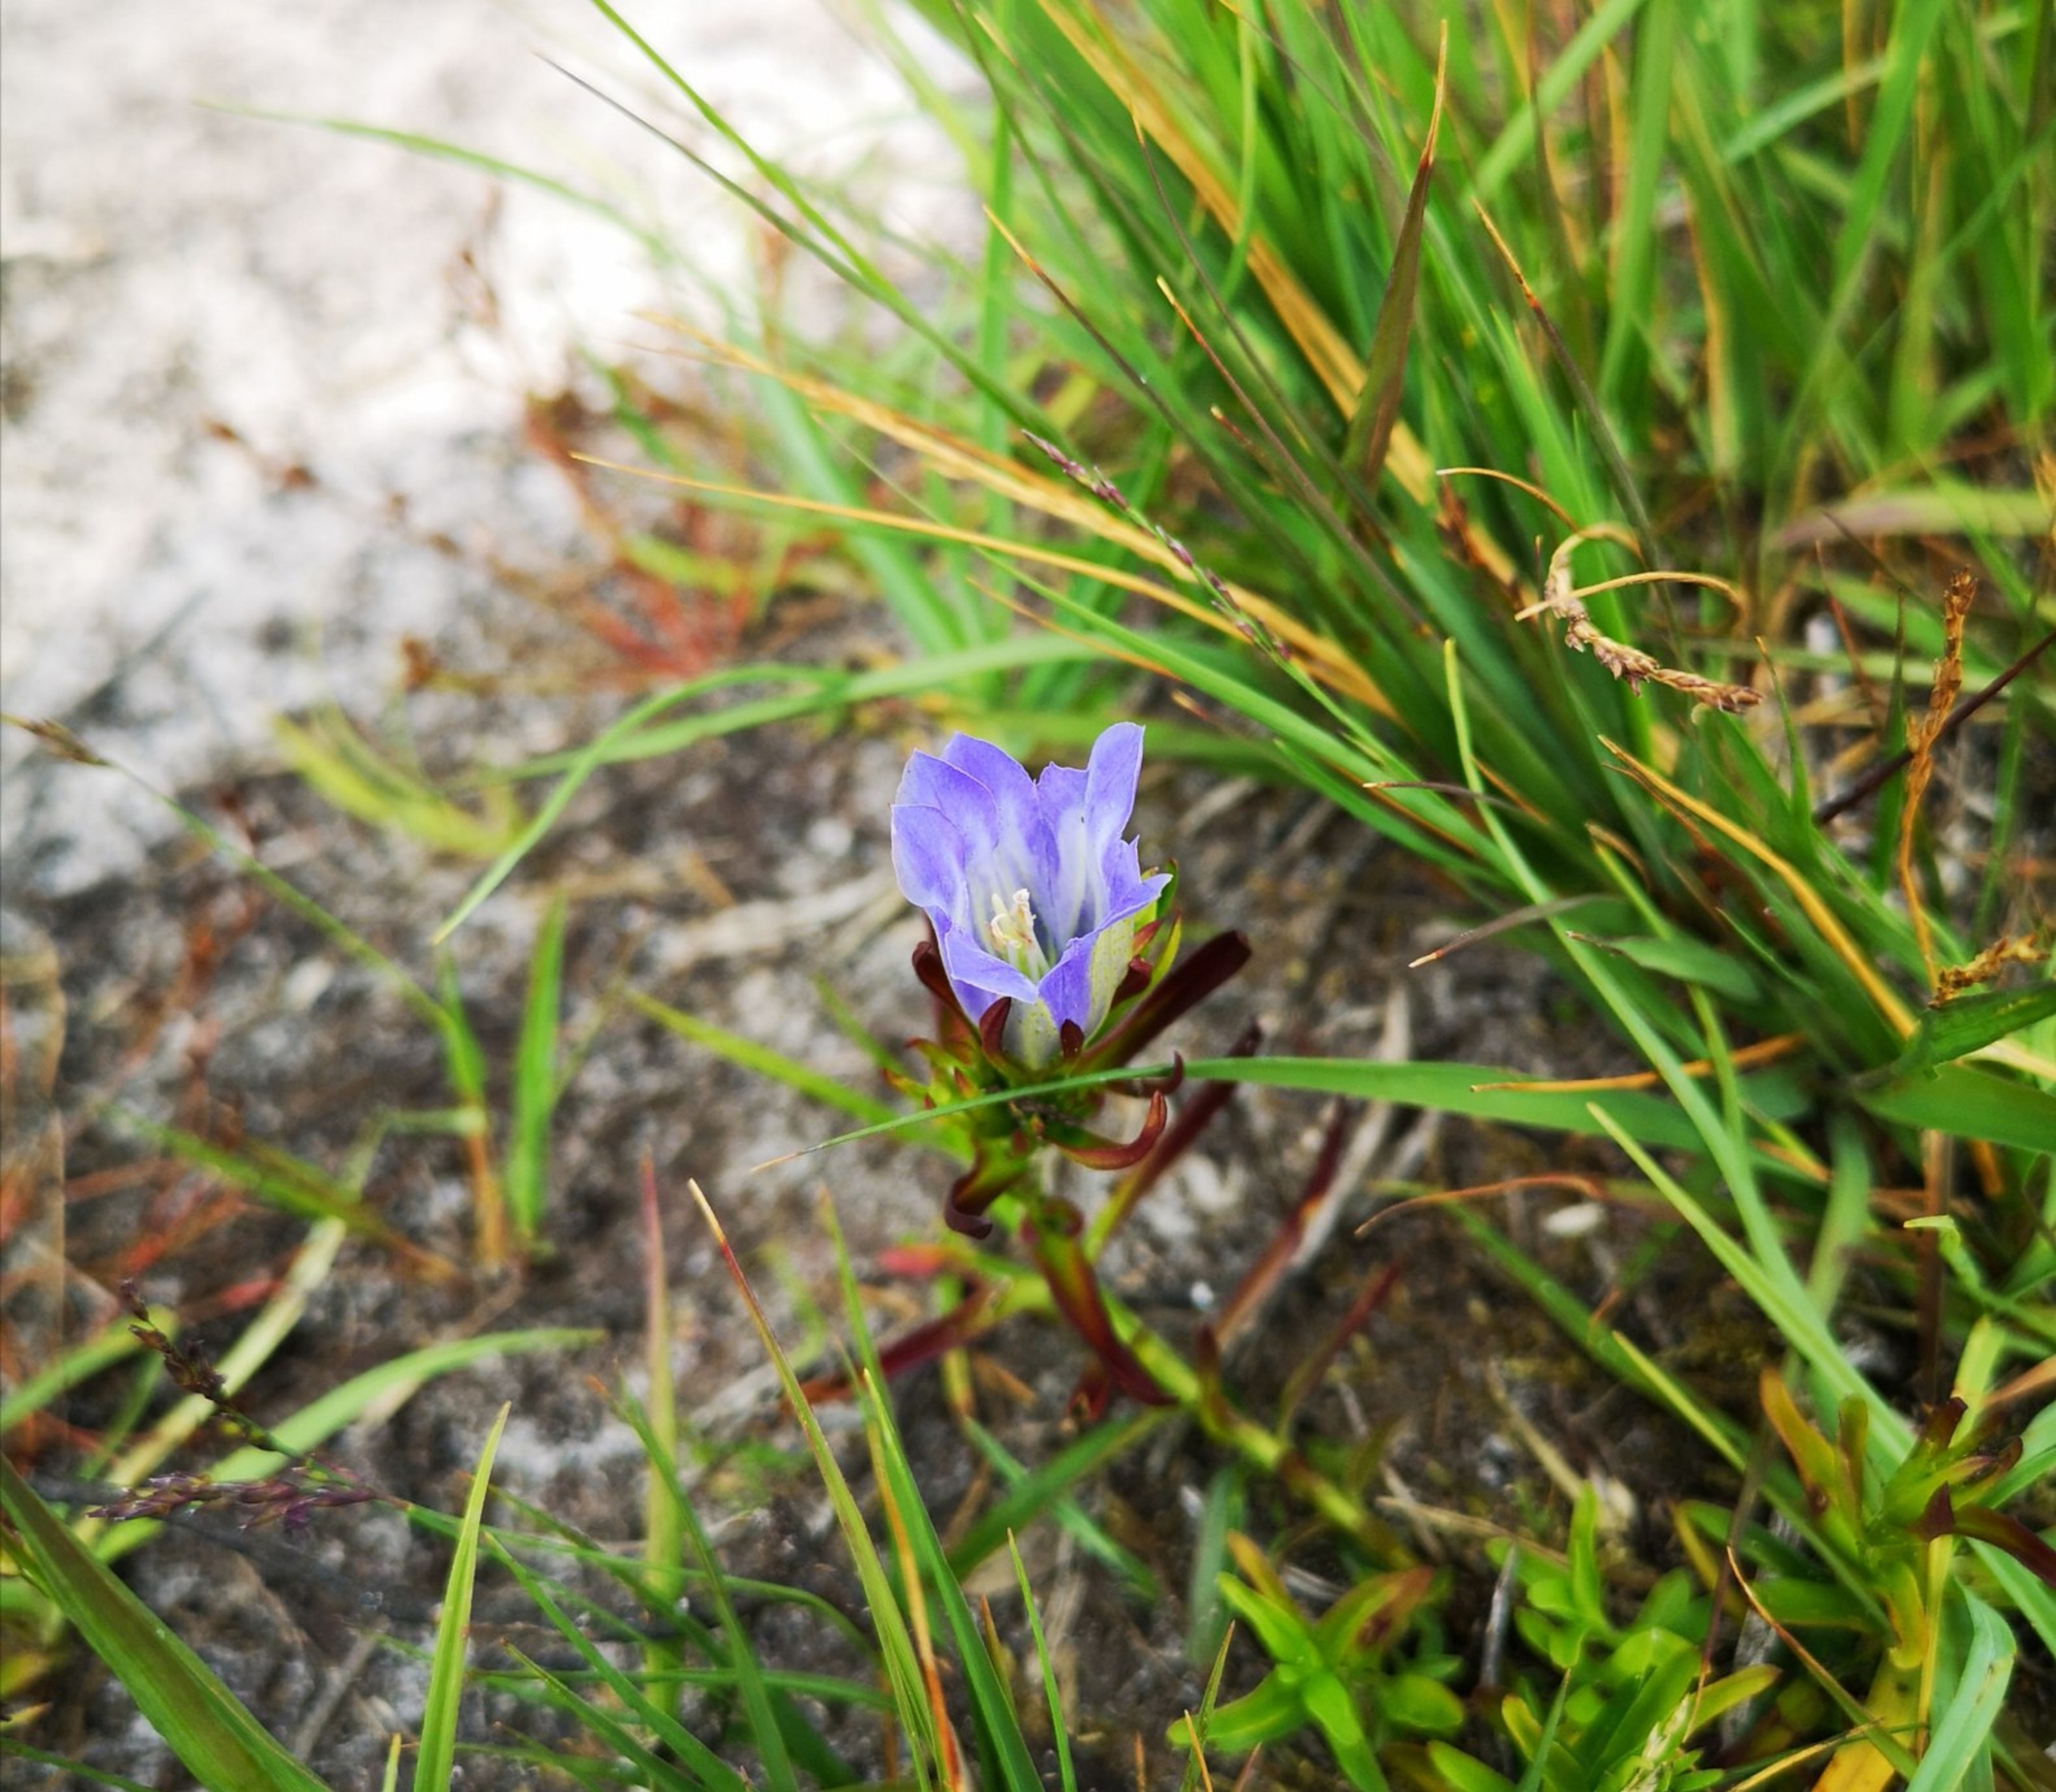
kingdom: Plantae
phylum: Tracheophyta
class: Magnoliopsida
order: Gentianales
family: Gentianaceae
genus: Gentiana
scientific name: Gentiana pneumonanthe
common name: Klokke-ensian
